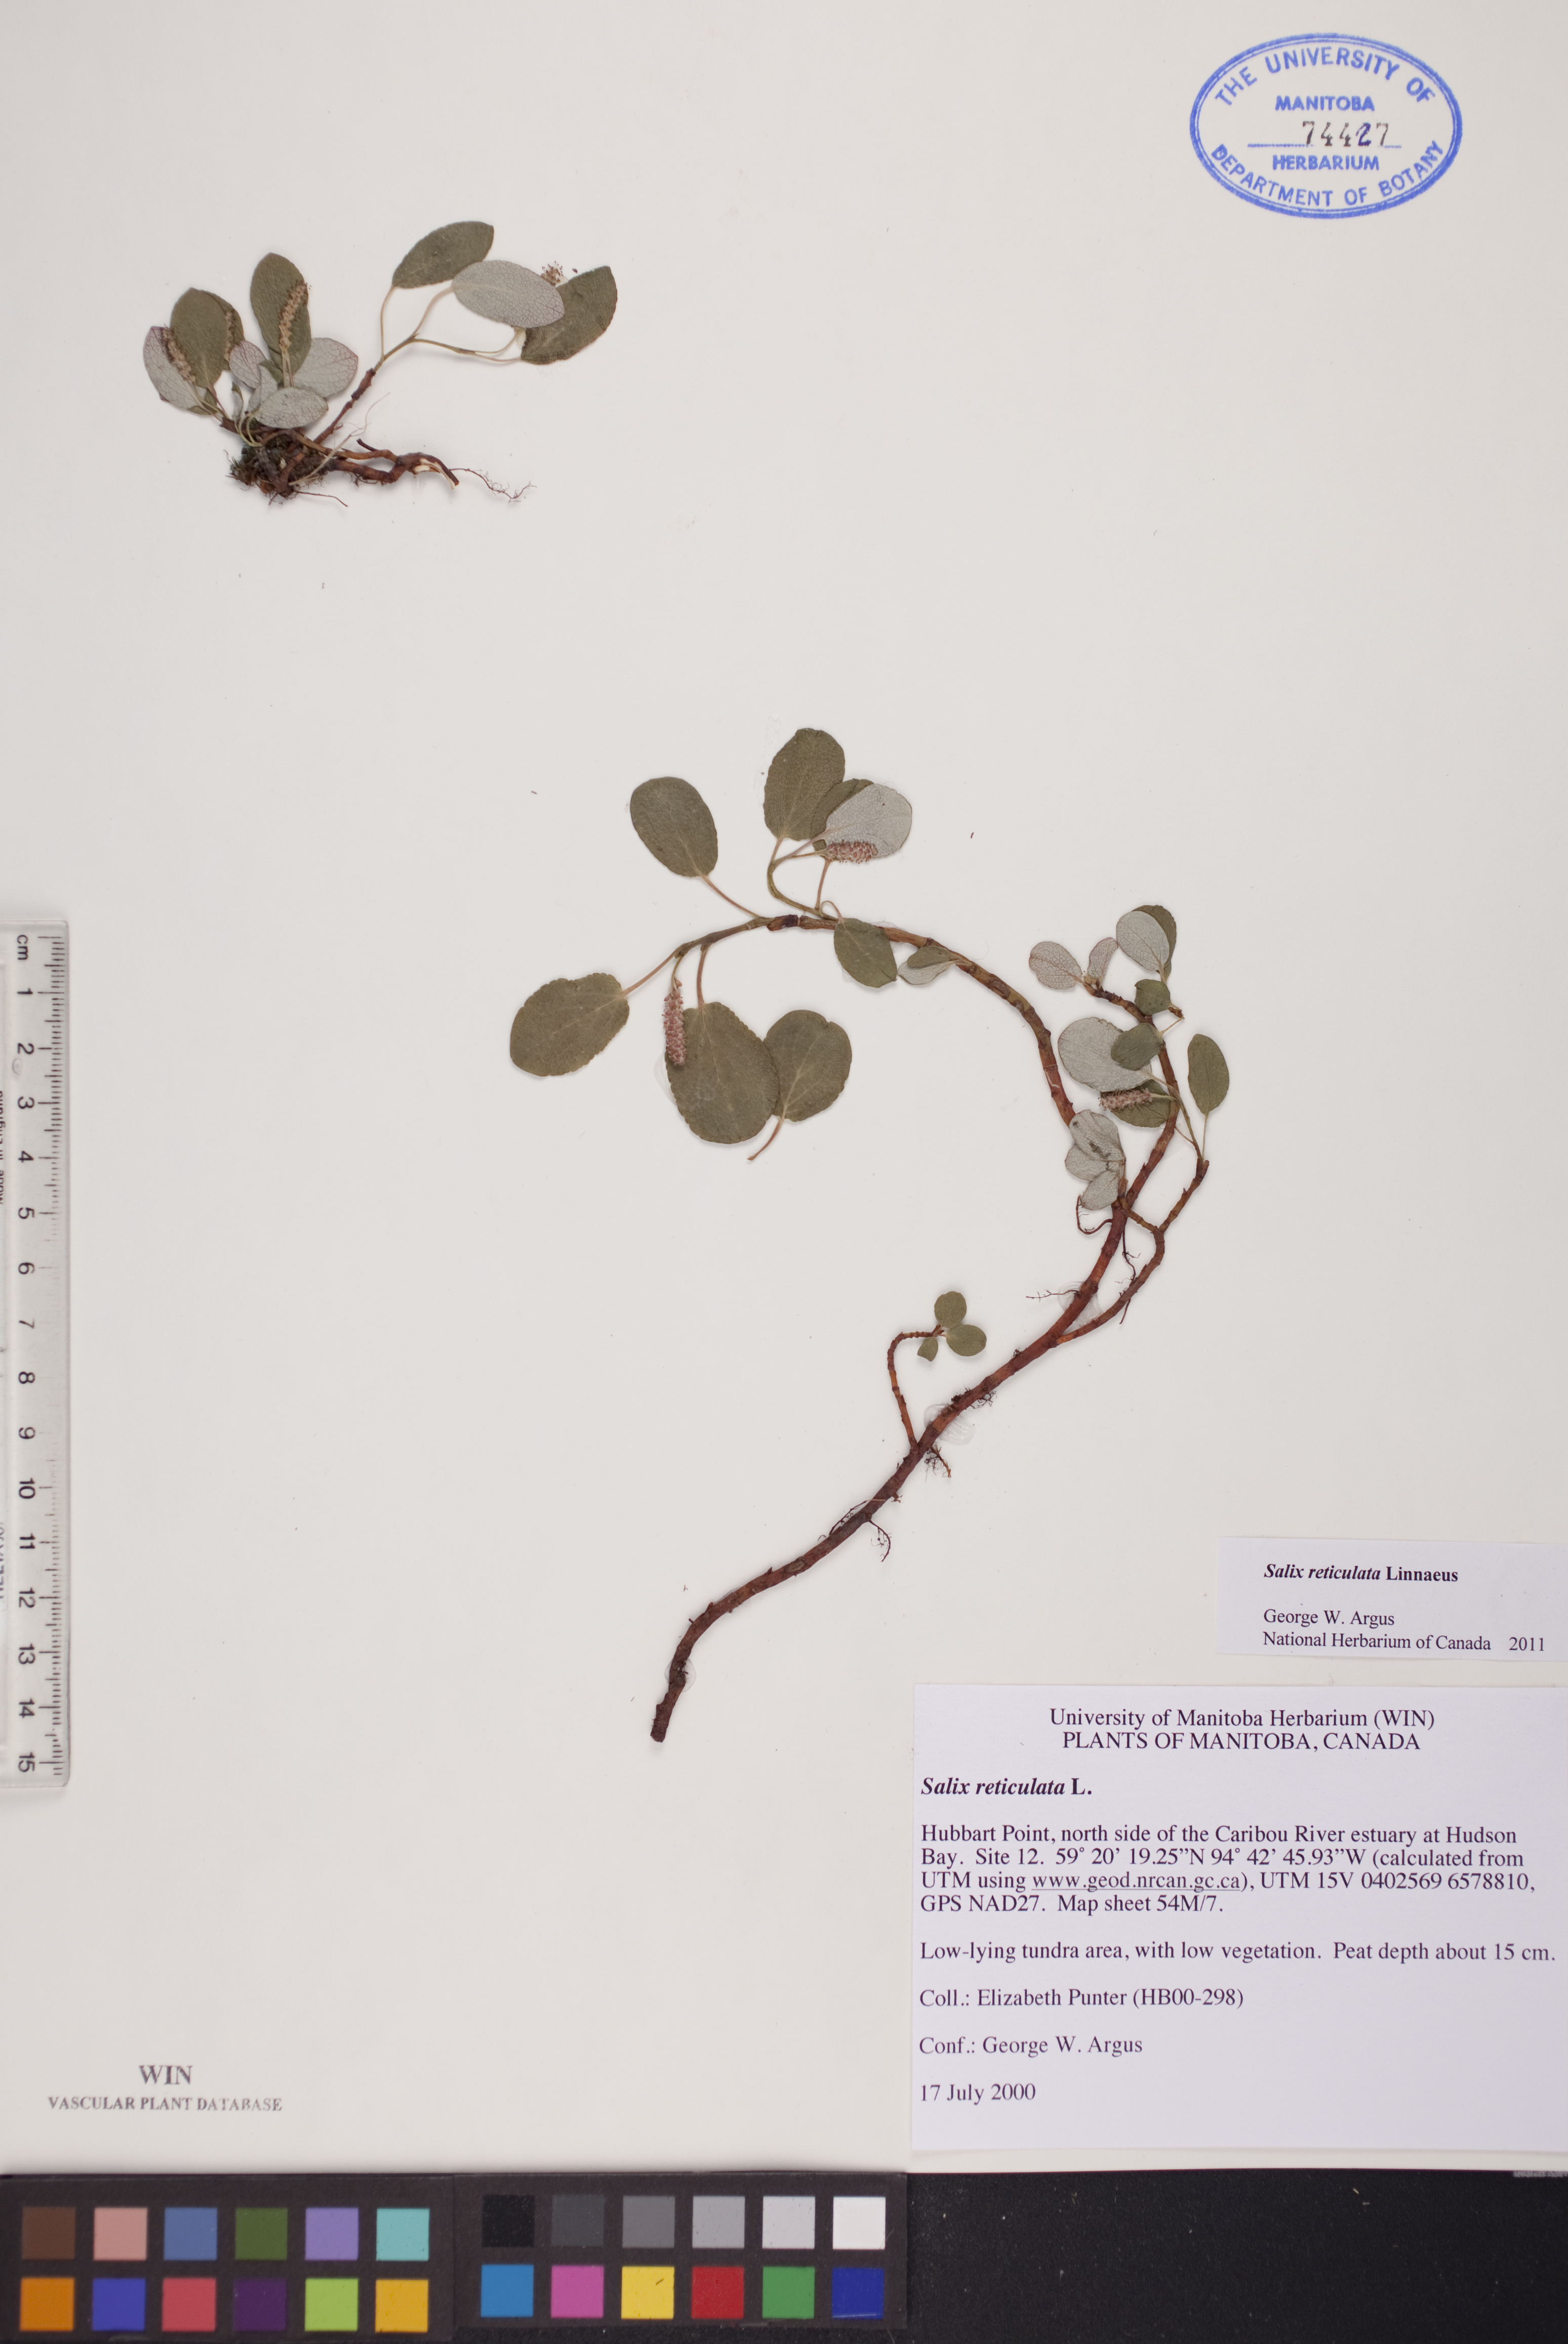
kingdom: Plantae
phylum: Tracheophyta
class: Magnoliopsida
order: Malpighiales
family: Salicaceae
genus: Salix
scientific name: Salix reticulata
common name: Net-leaved willow
